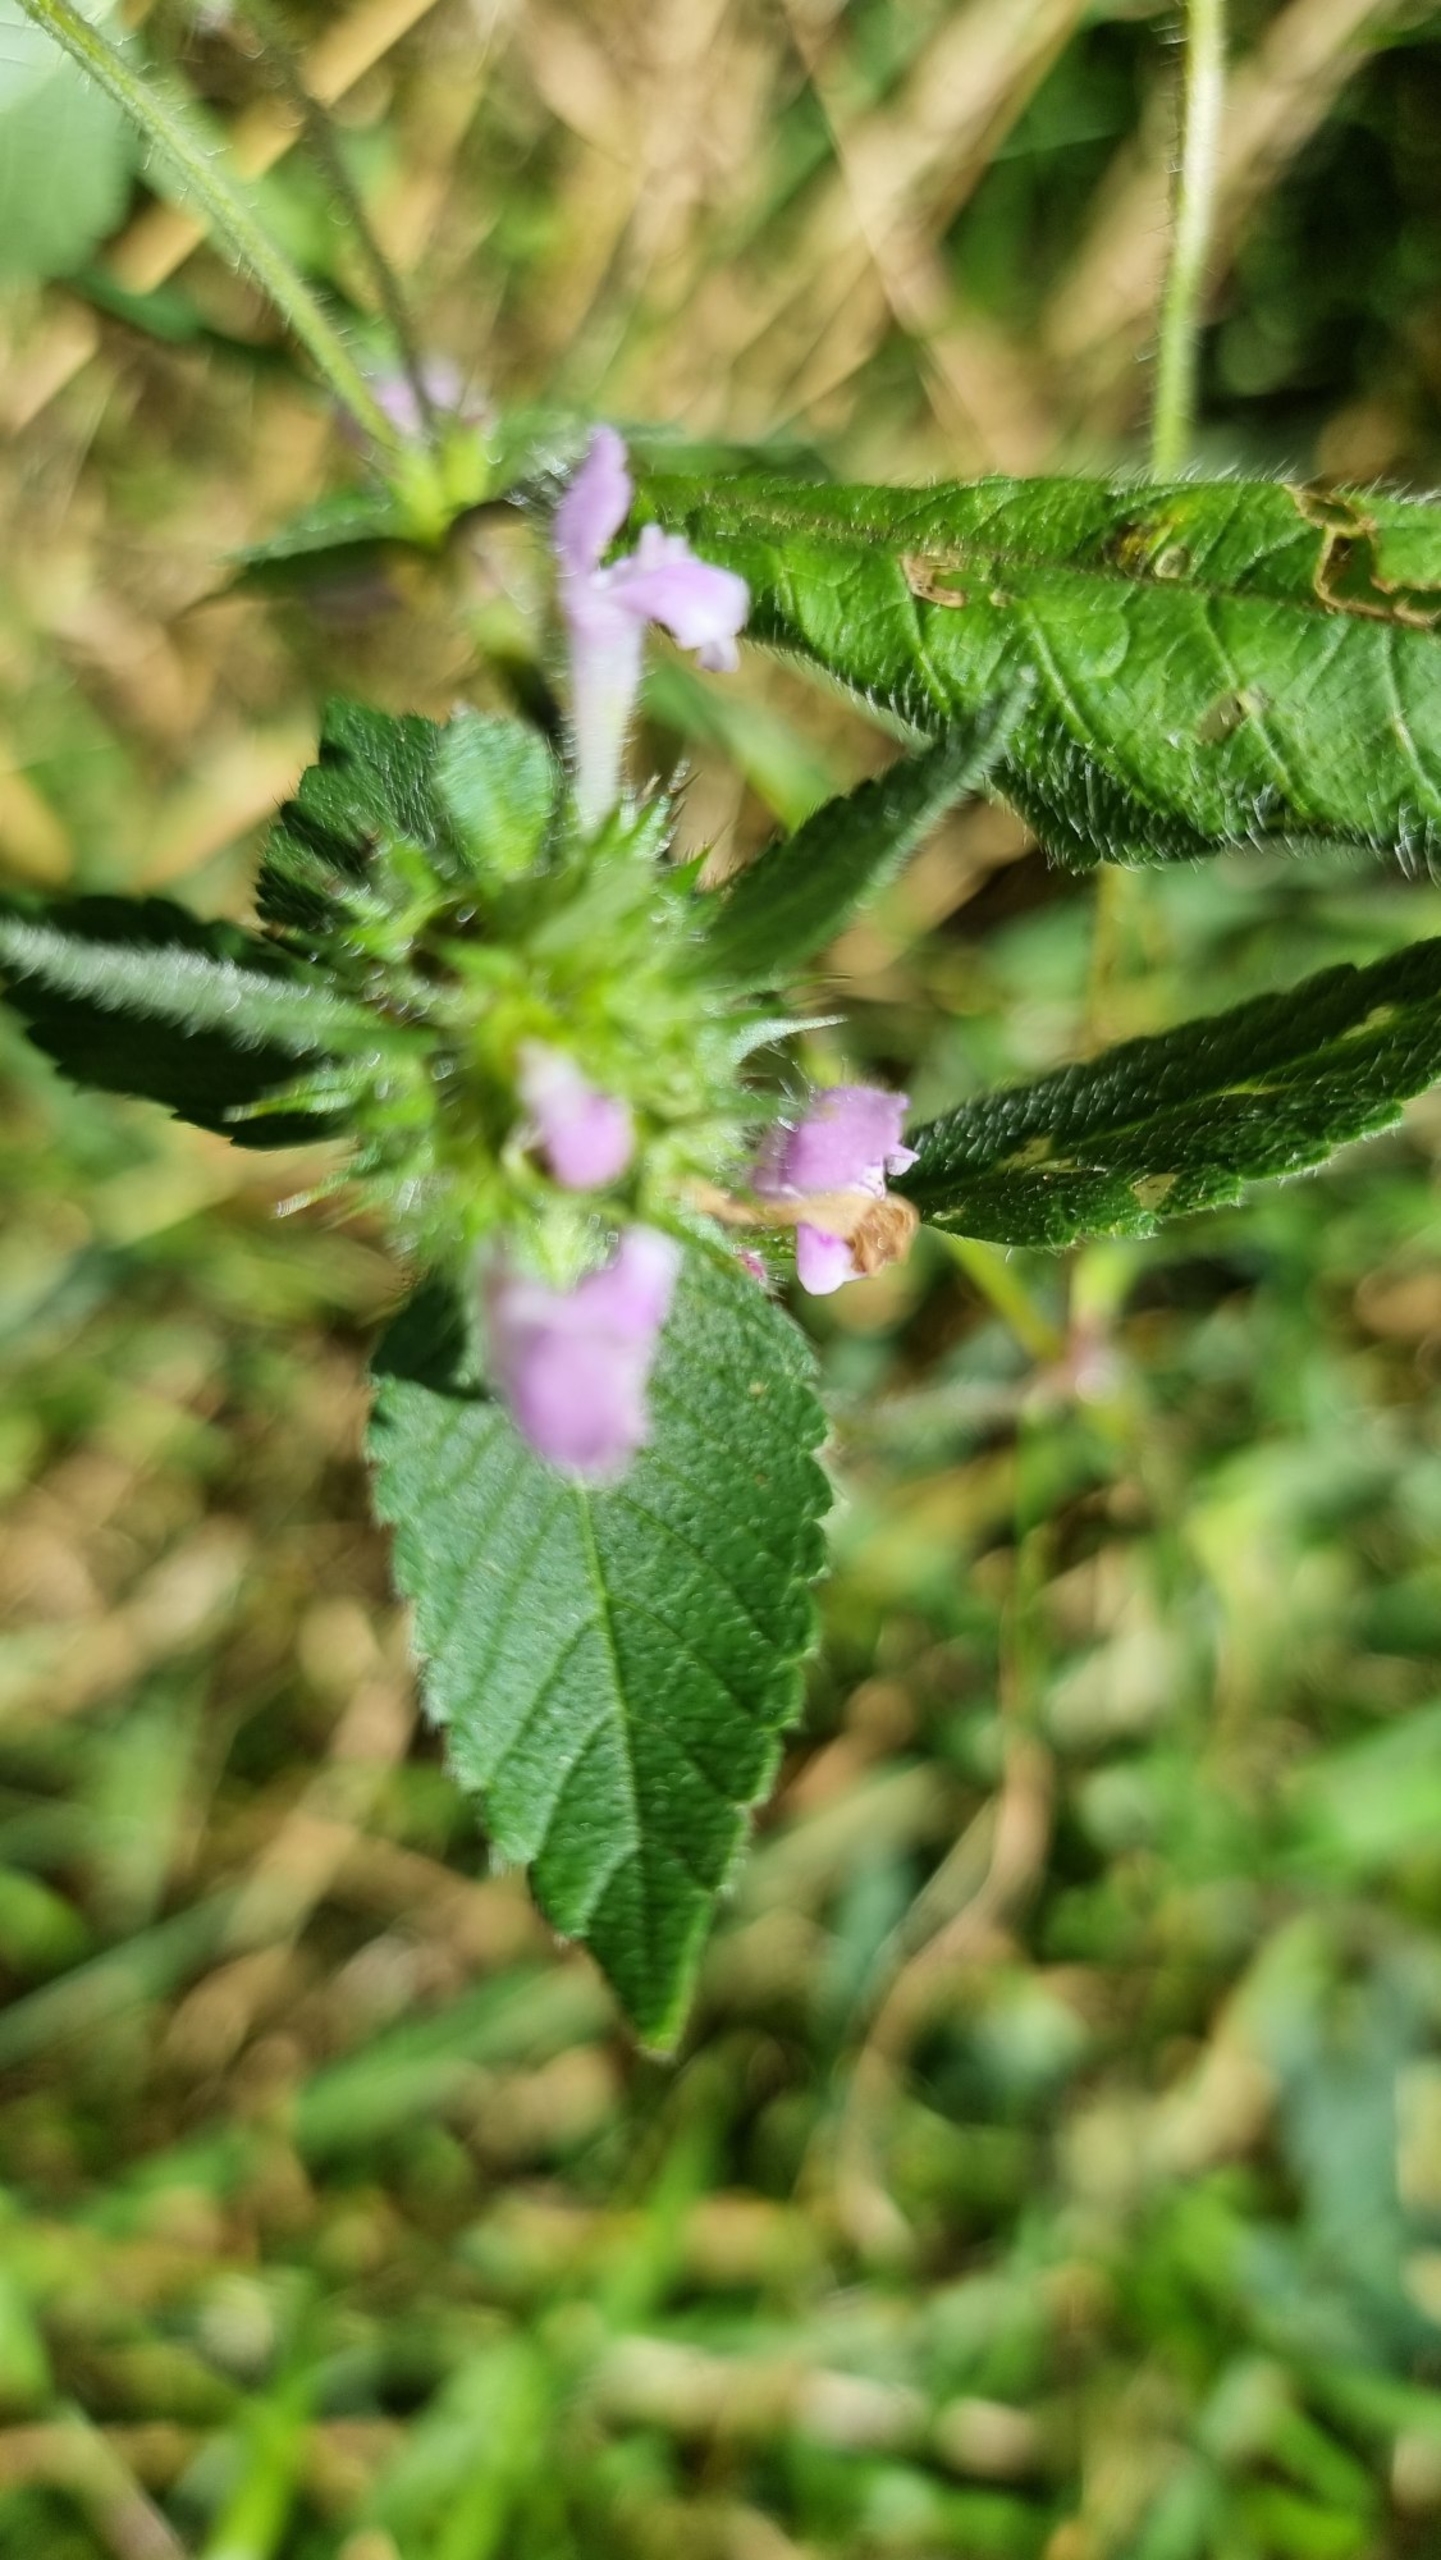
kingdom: Plantae
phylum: Tracheophyta
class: Magnoliopsida
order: Lamiales
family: Lamiaceae
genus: Galeopsis
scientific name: Galeopsis tetrahit
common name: Almindelig hanekro
